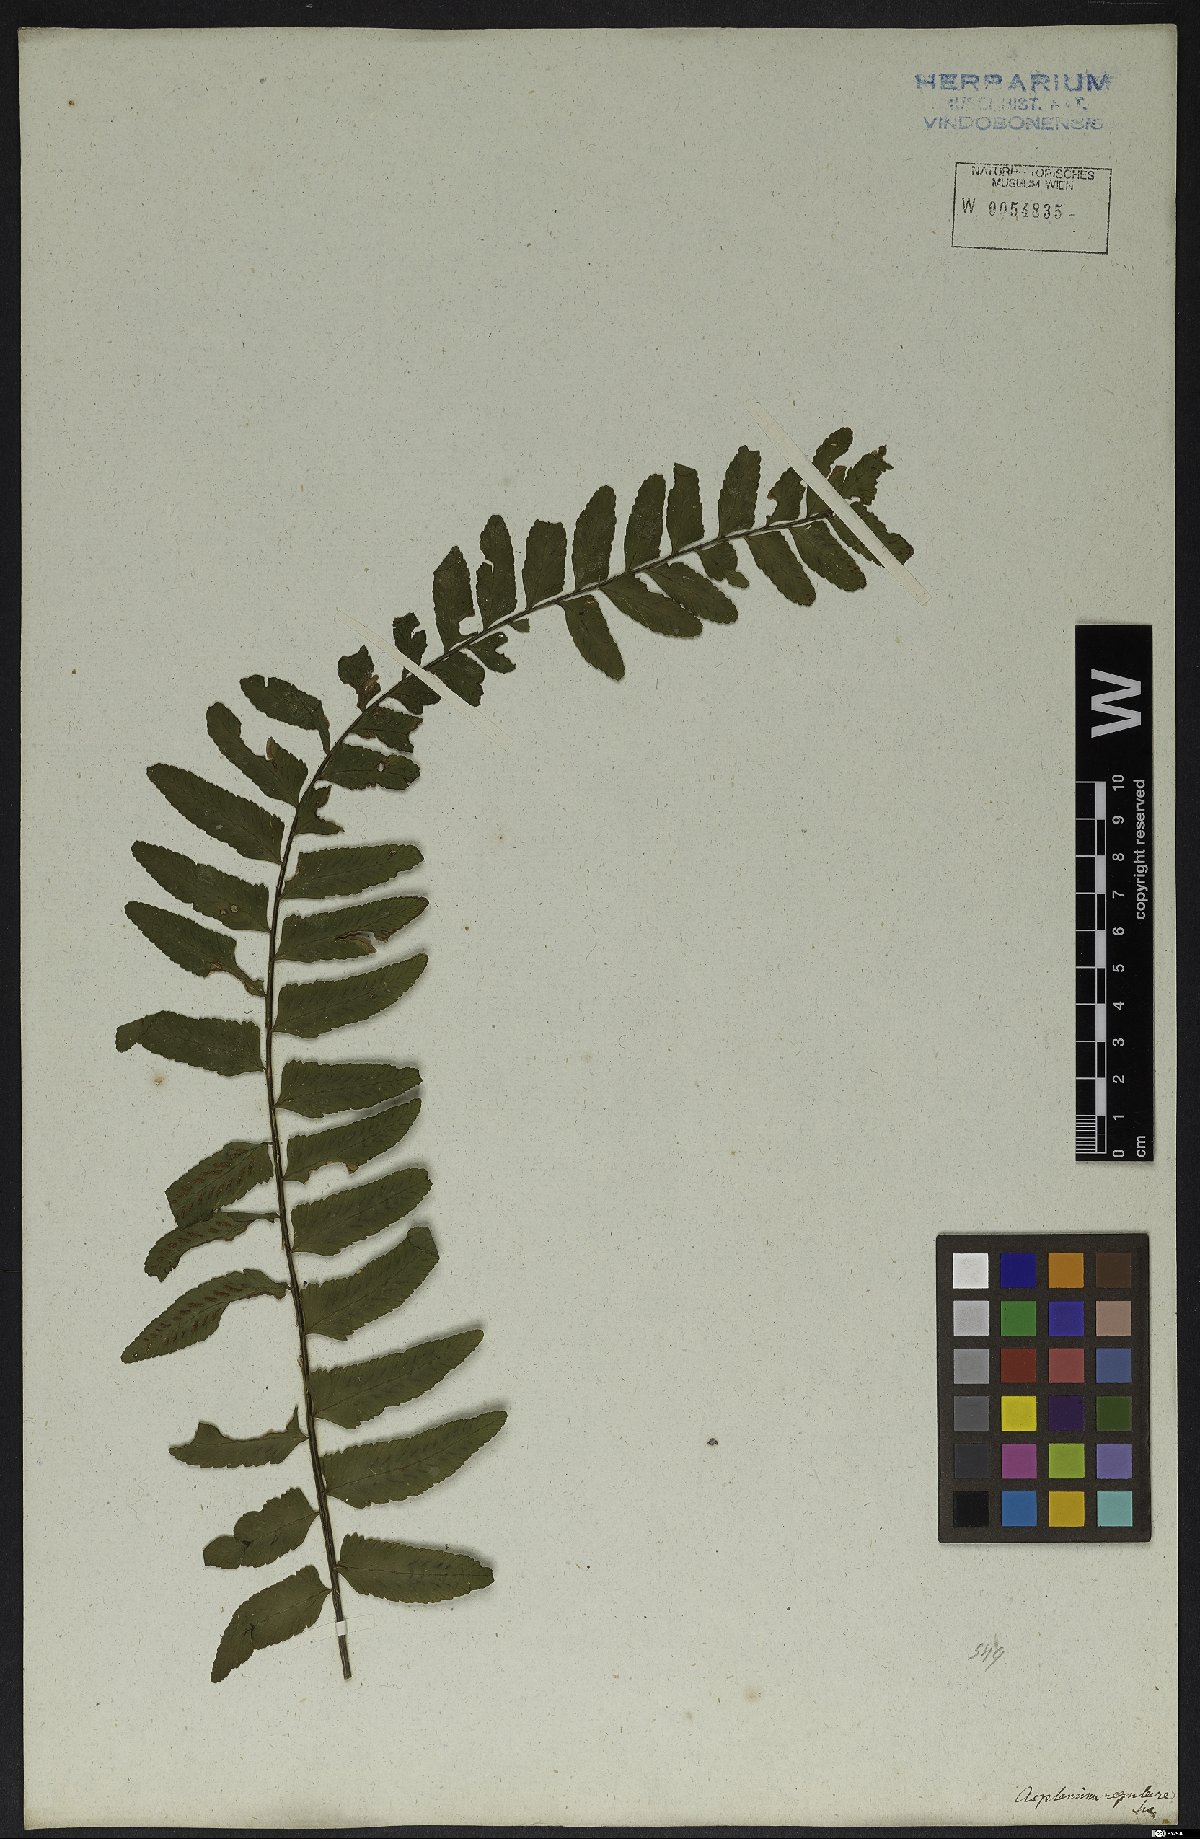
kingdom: Plantae
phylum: Tracheophyta
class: Polypodiopsida
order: Polypodiales
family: Aspleniaceae
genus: Asplenium
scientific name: Asplenium regulare
